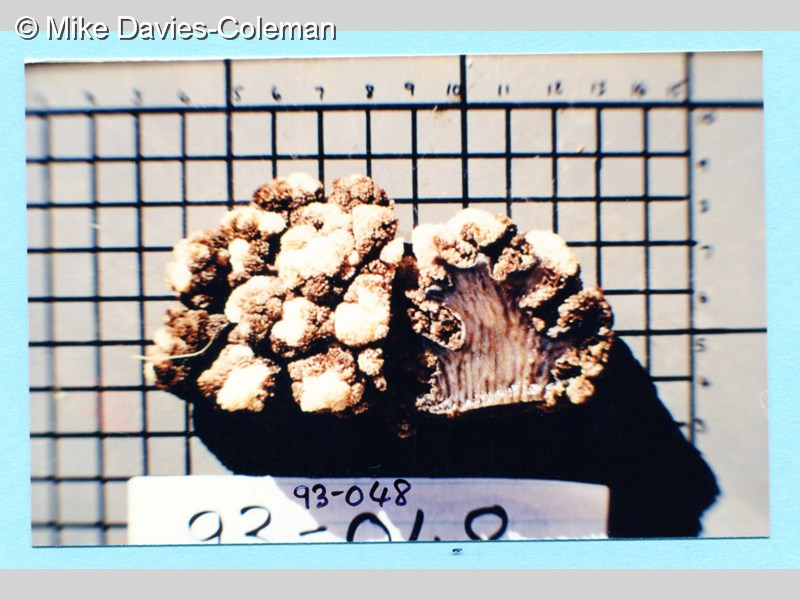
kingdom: Animalia
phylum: Cnidaria
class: Anthozoa
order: Malacalcyonacea
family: Capnellidae
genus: Eunephthya
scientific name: Eunephthya thyrsoidea
